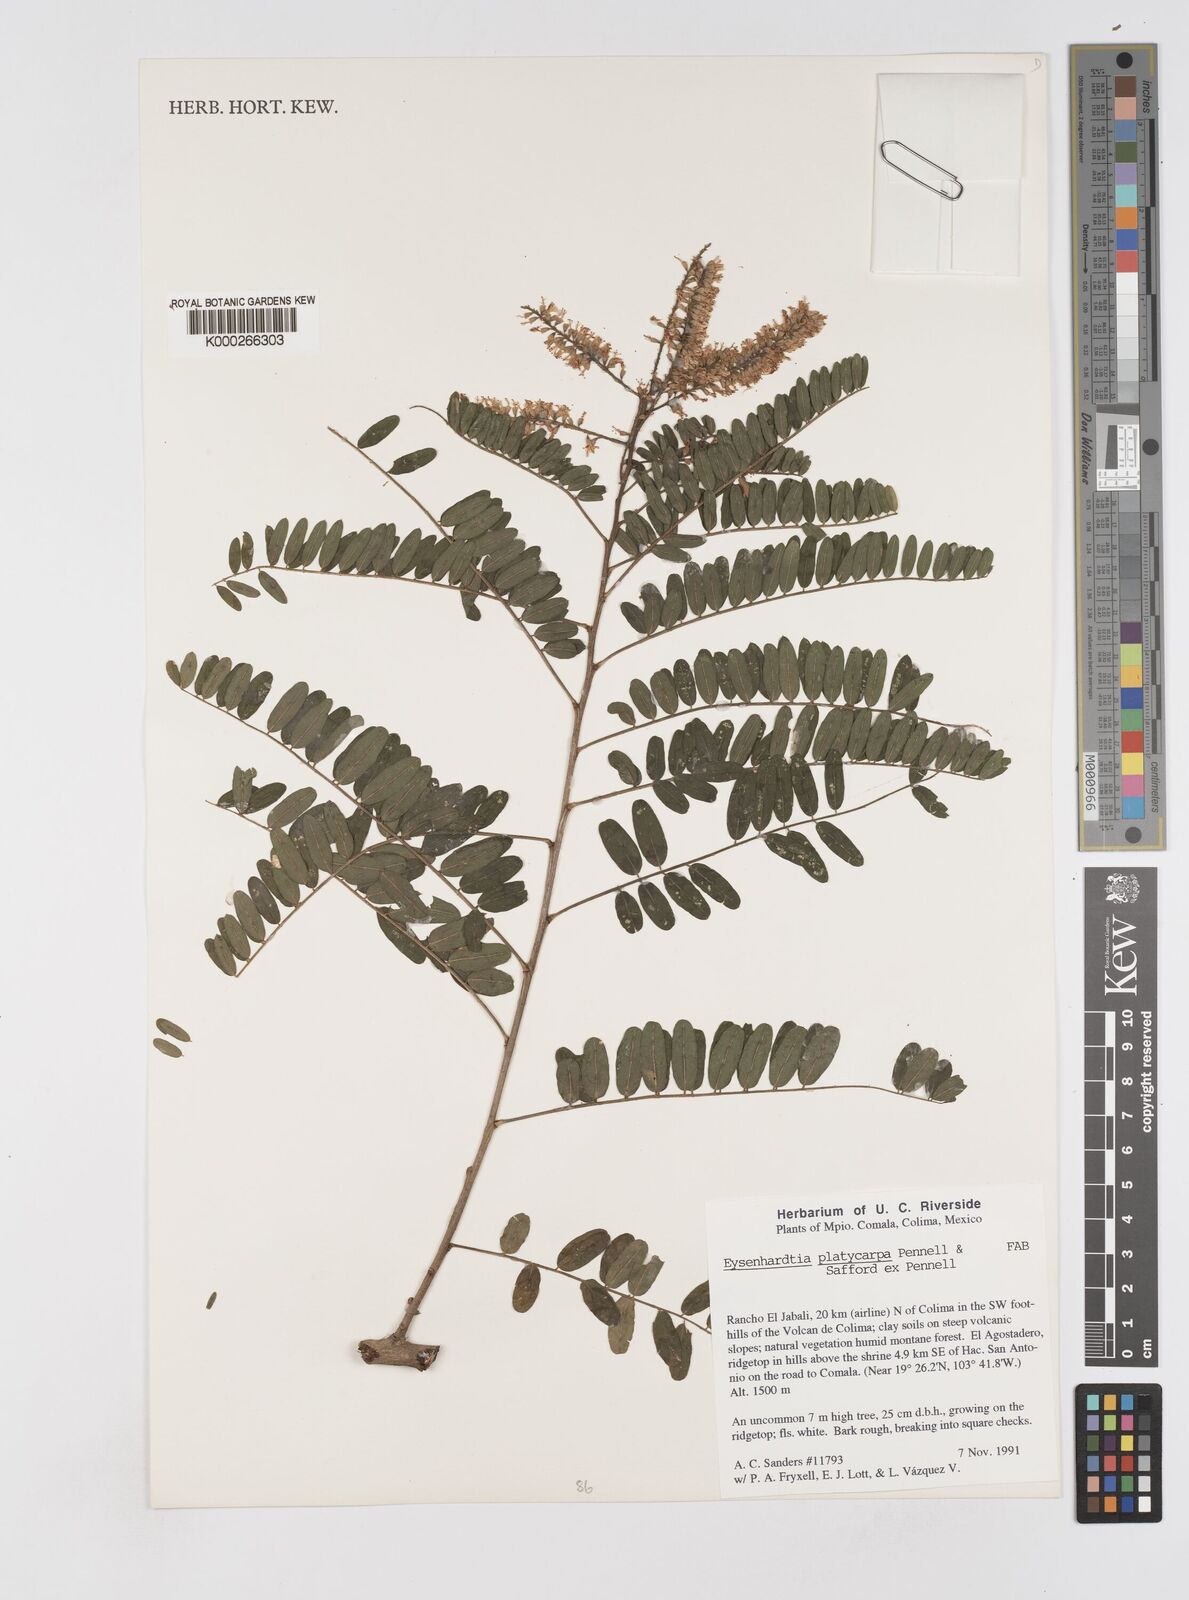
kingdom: Plantae
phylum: Tracheophyta
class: Magnoliopsida
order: Fabales
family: Fabaceae
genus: Eysenhardtia
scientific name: Eysenhardtia platycarpa
